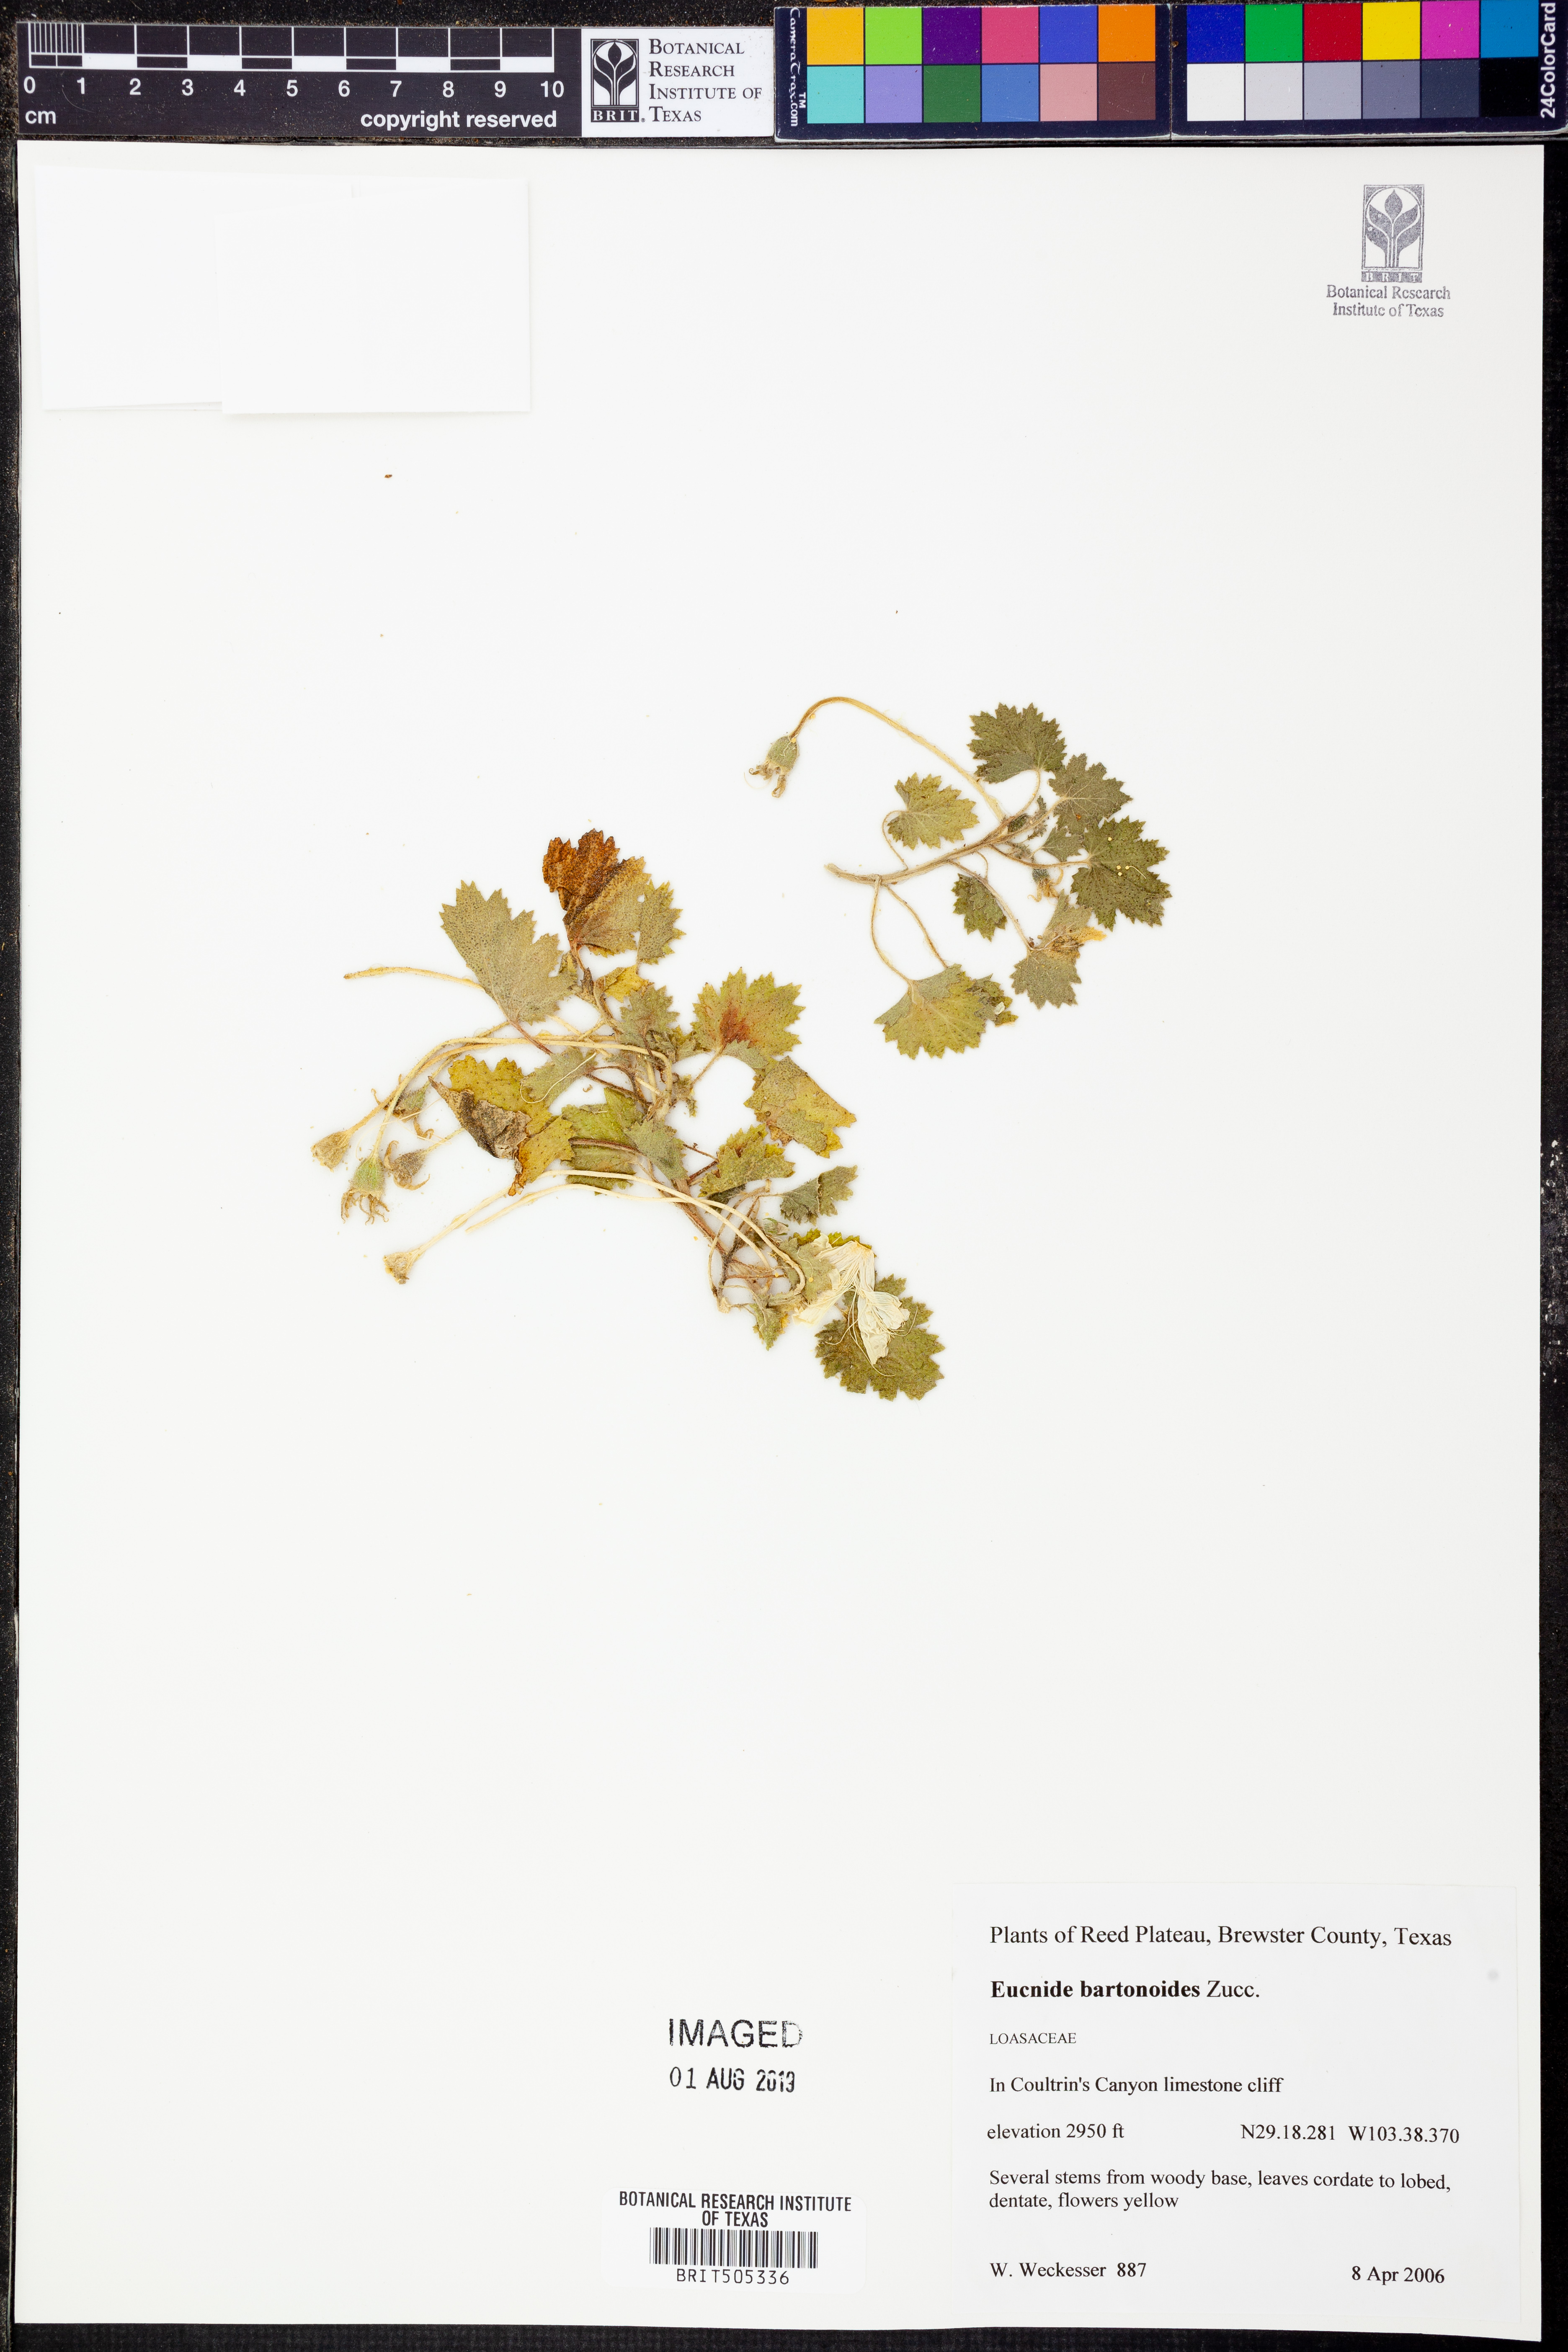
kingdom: Plantae
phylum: Tracheophyta
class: Magnoliopsida
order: Cornales
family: Loasaceae
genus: Eucnide
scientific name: Eucnide bartonioides
